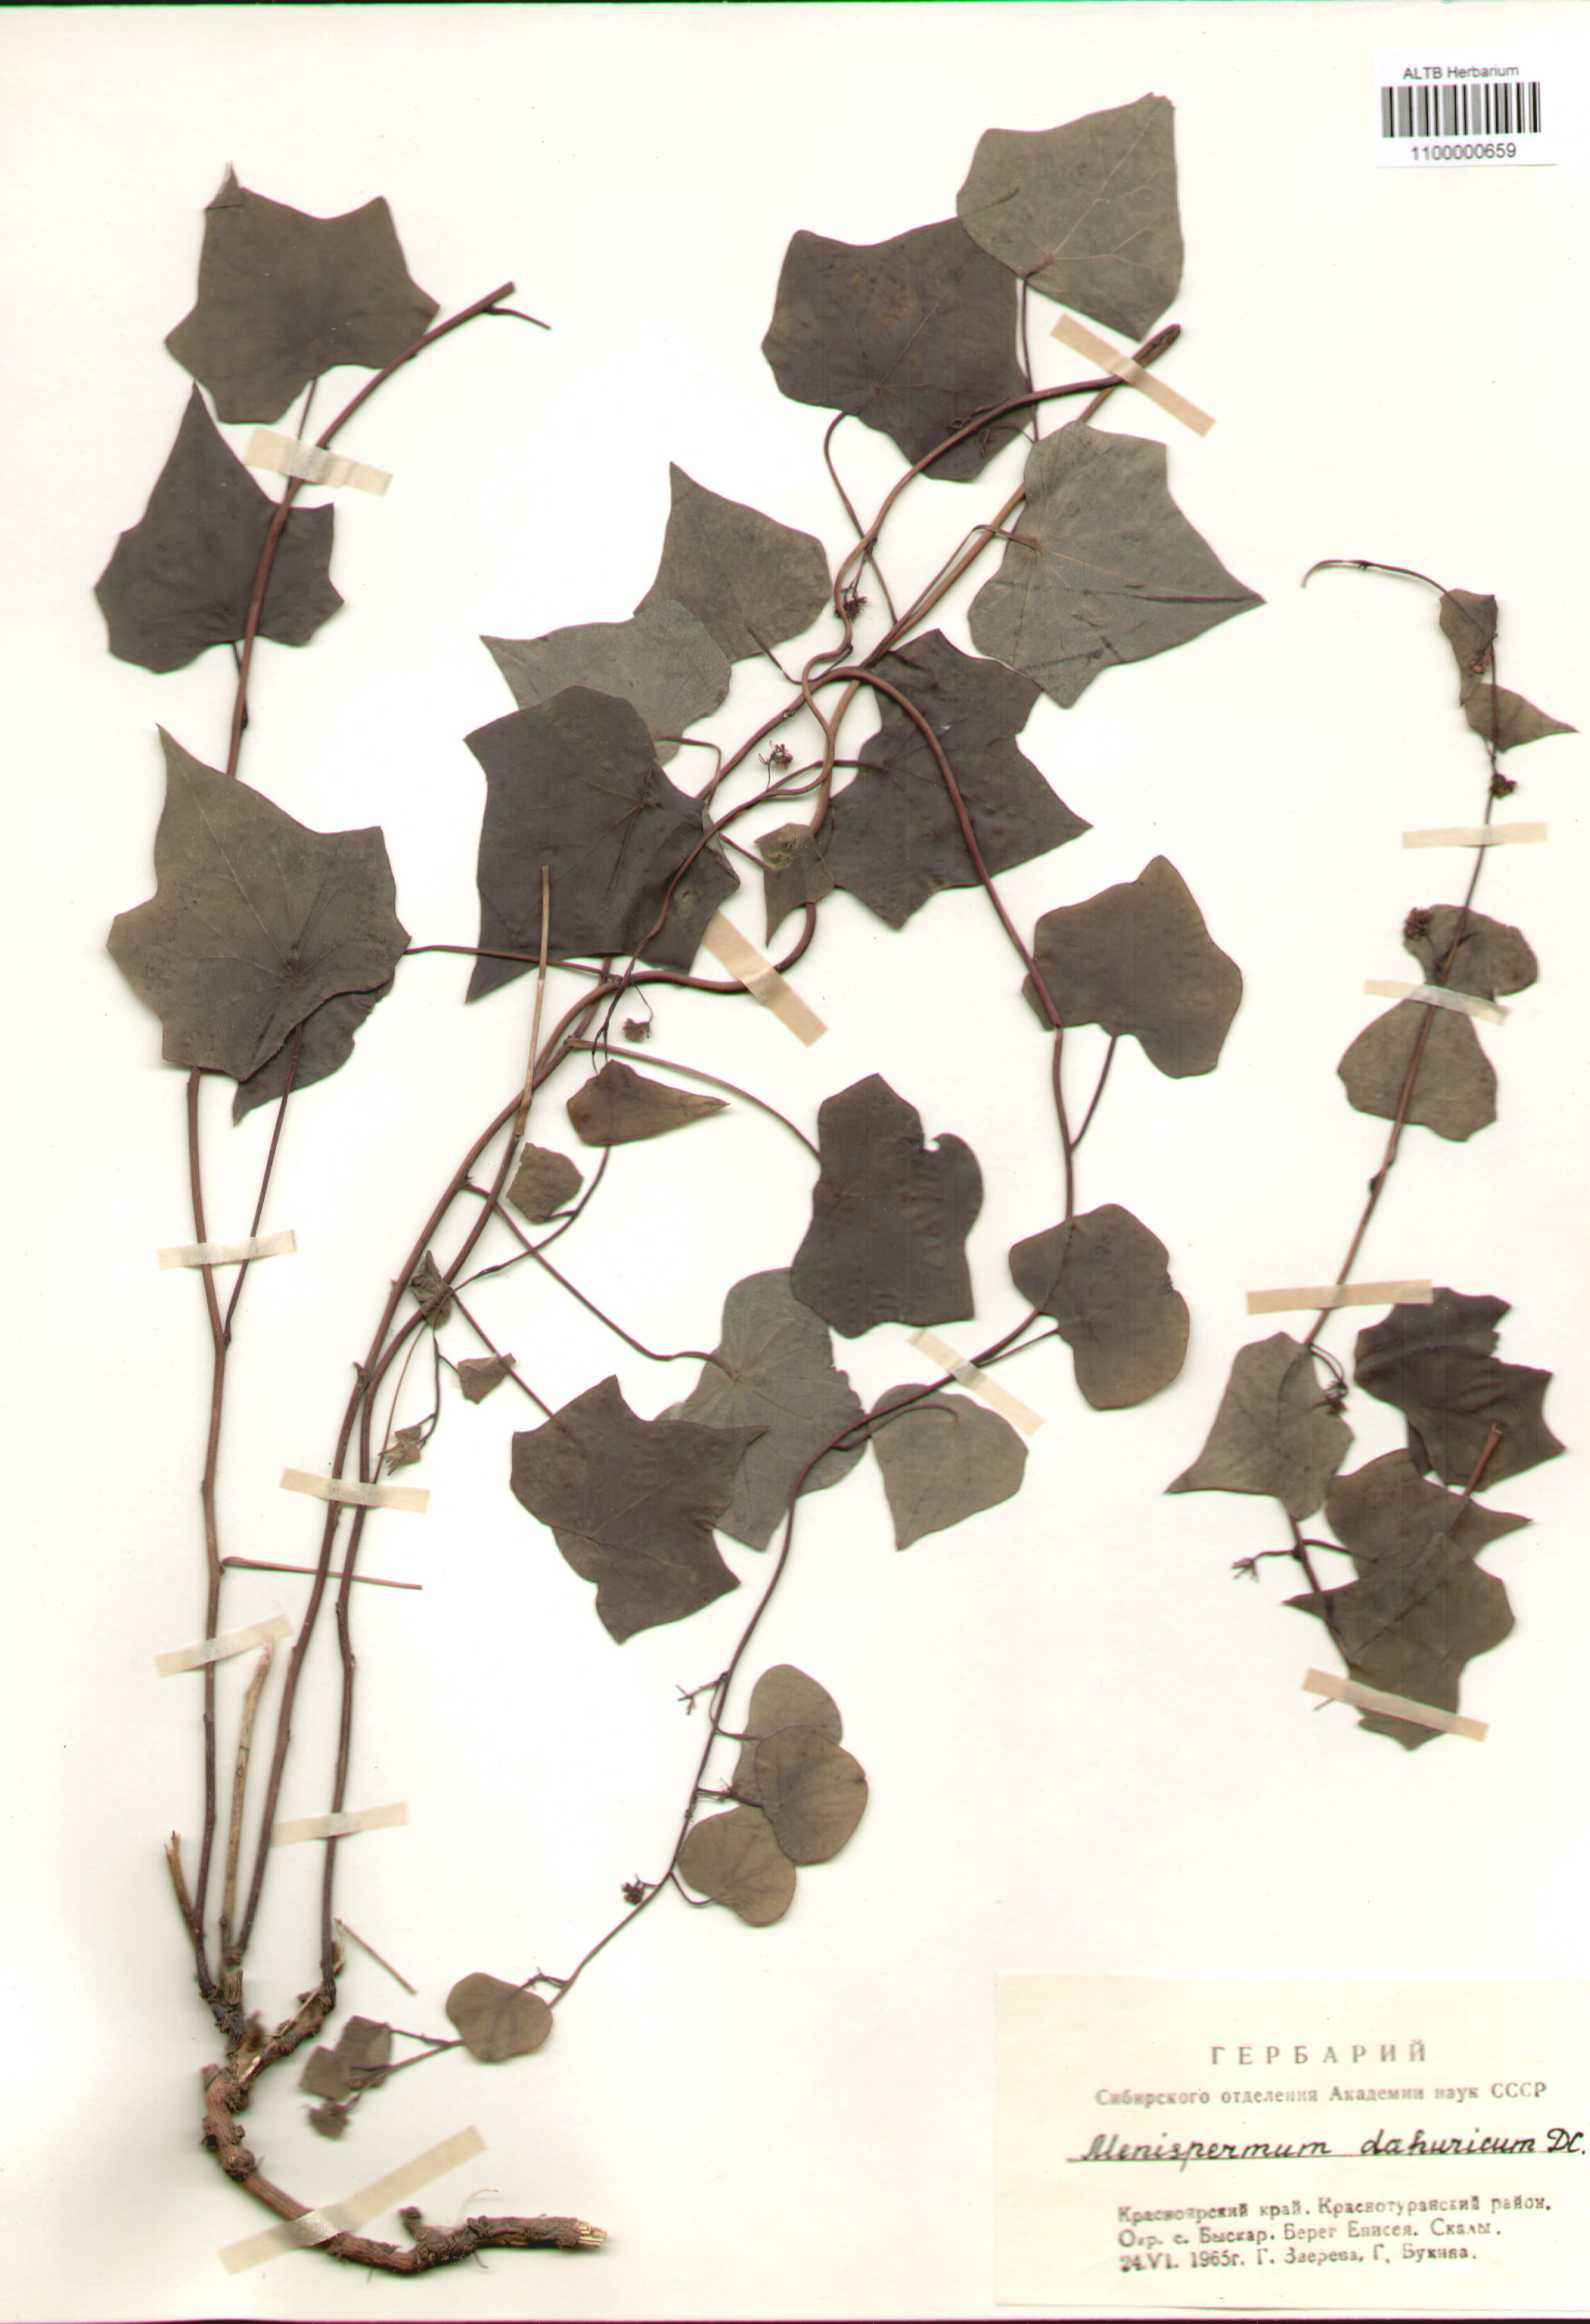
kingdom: Plantae
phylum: Tracheophyta
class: Magnoliopsida
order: Ranunculales
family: Menispermaceae
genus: Menispermum
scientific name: Menispermum
